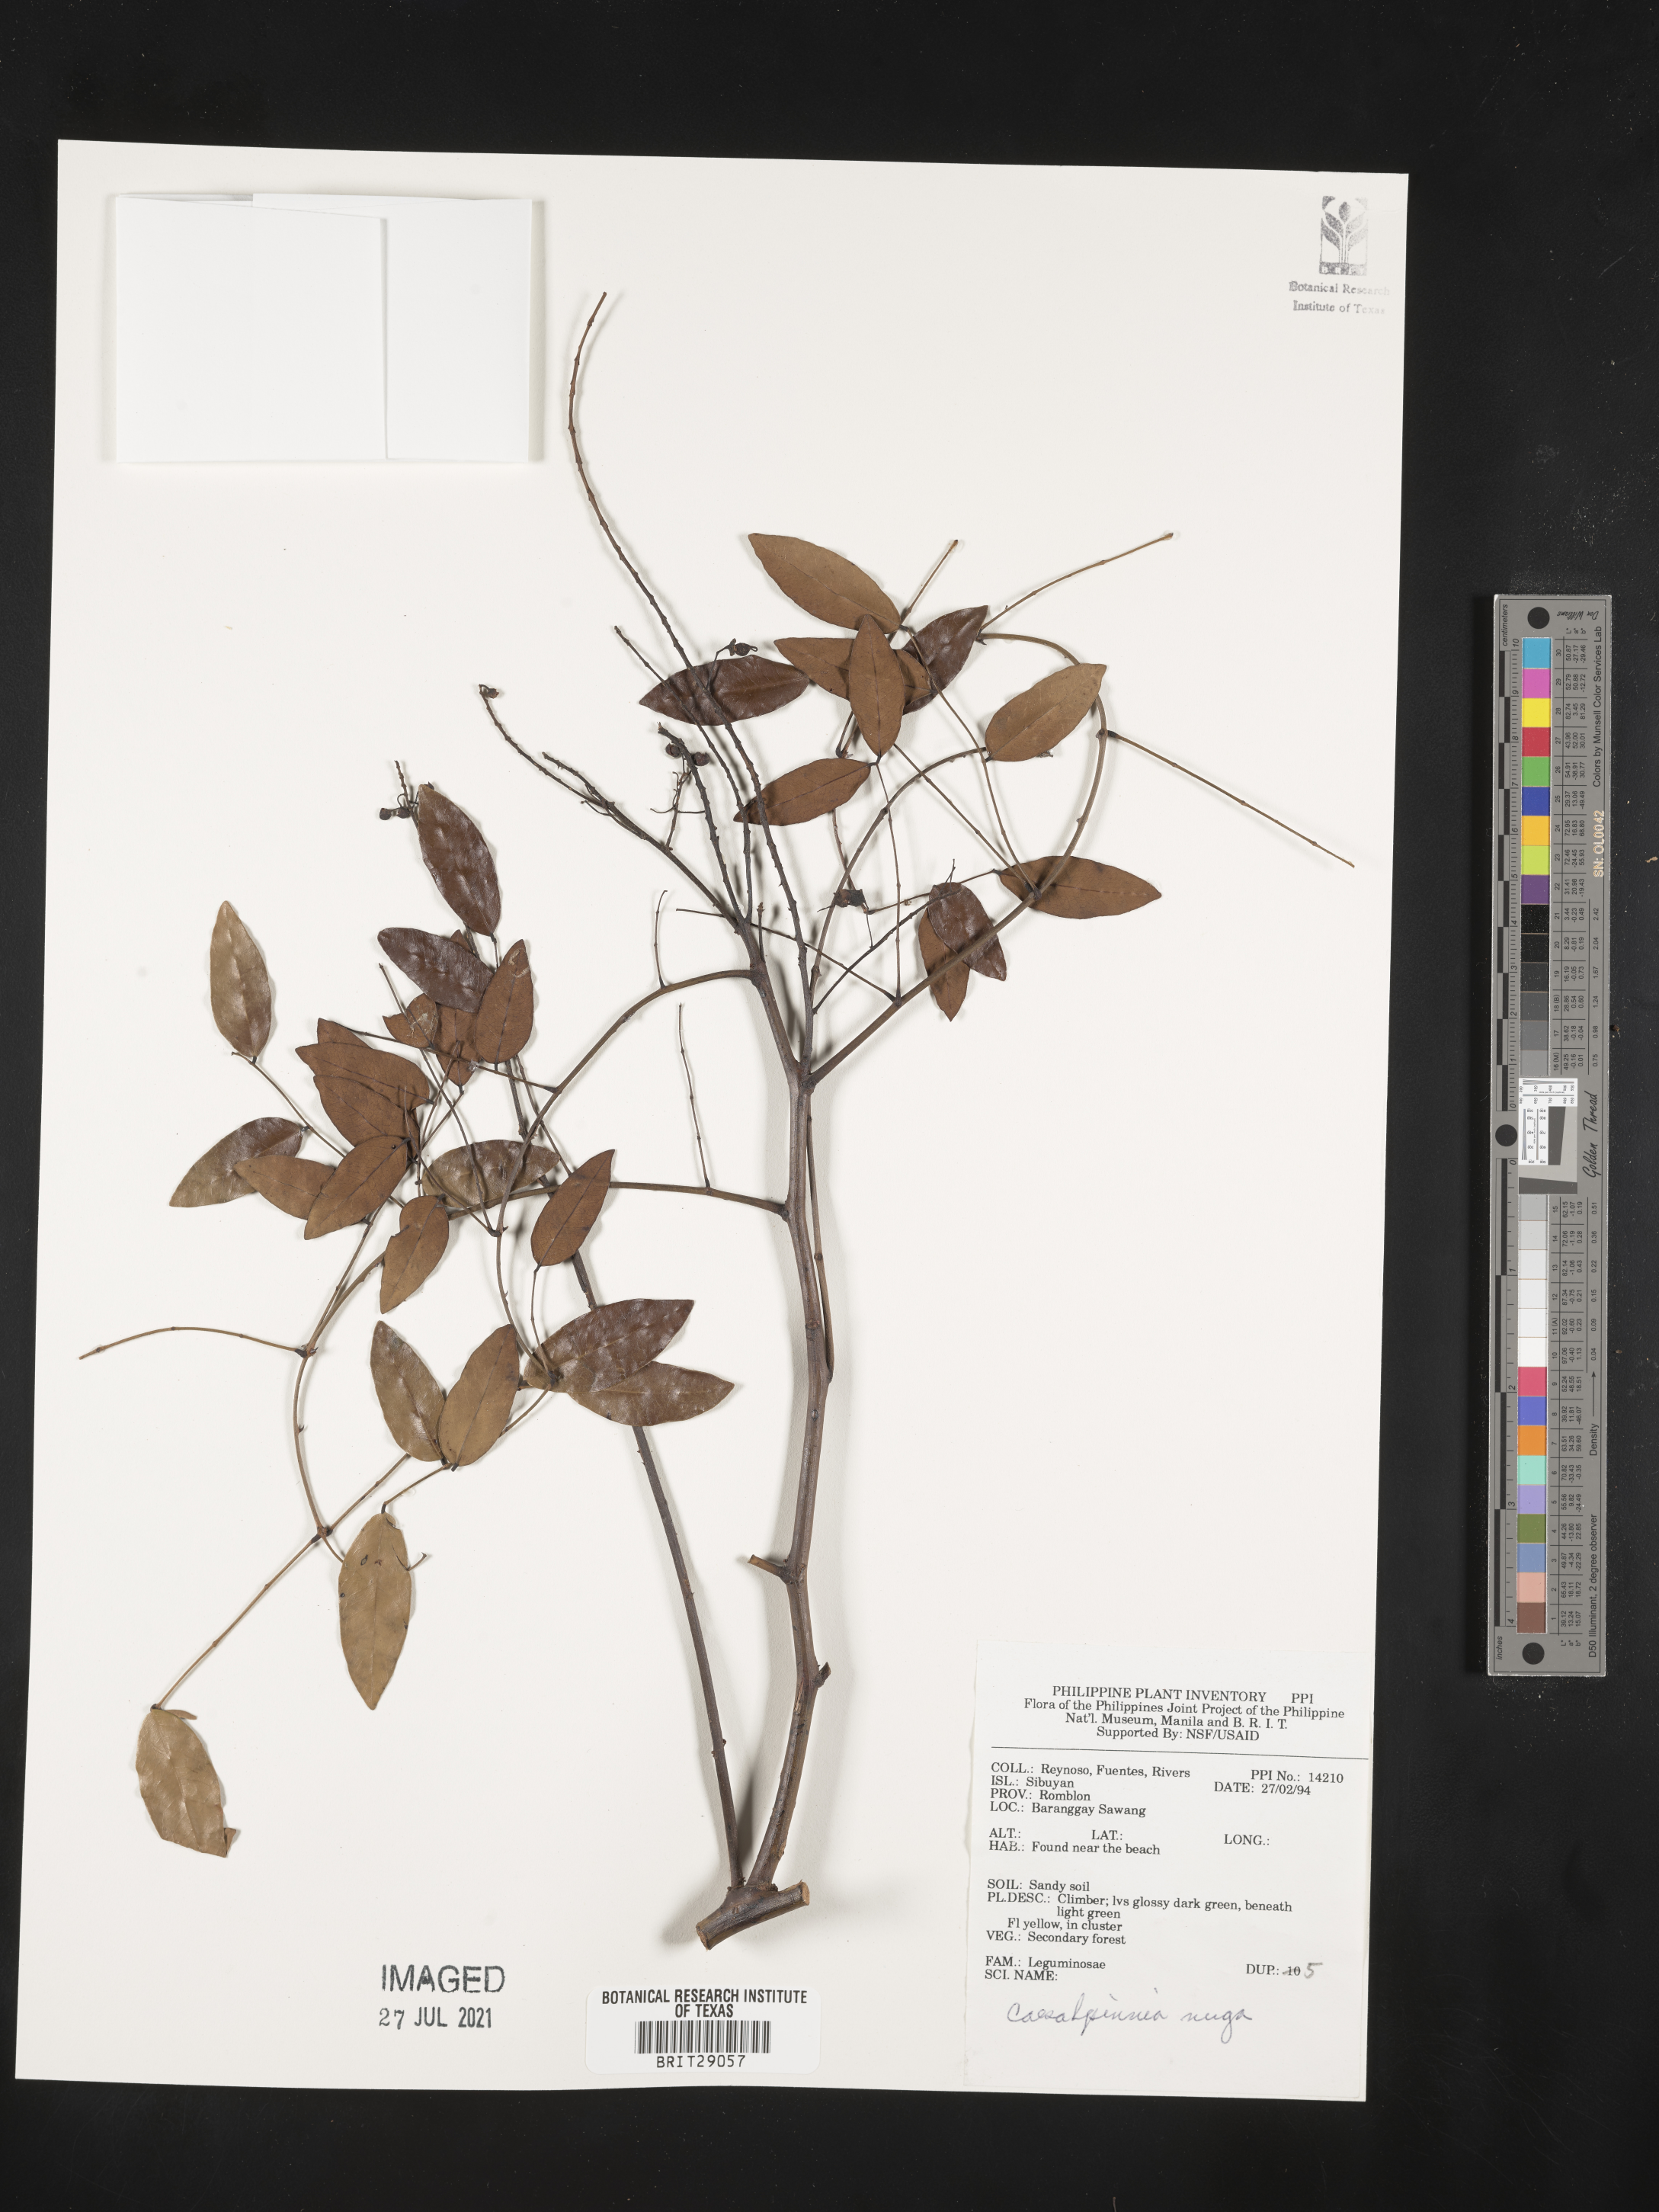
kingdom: Plantae
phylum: Tracheophyta
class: Magnoliopsida
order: Fabales
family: Fabaceae
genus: Caesalpinia
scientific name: Caesalpinia Ticanto crista
